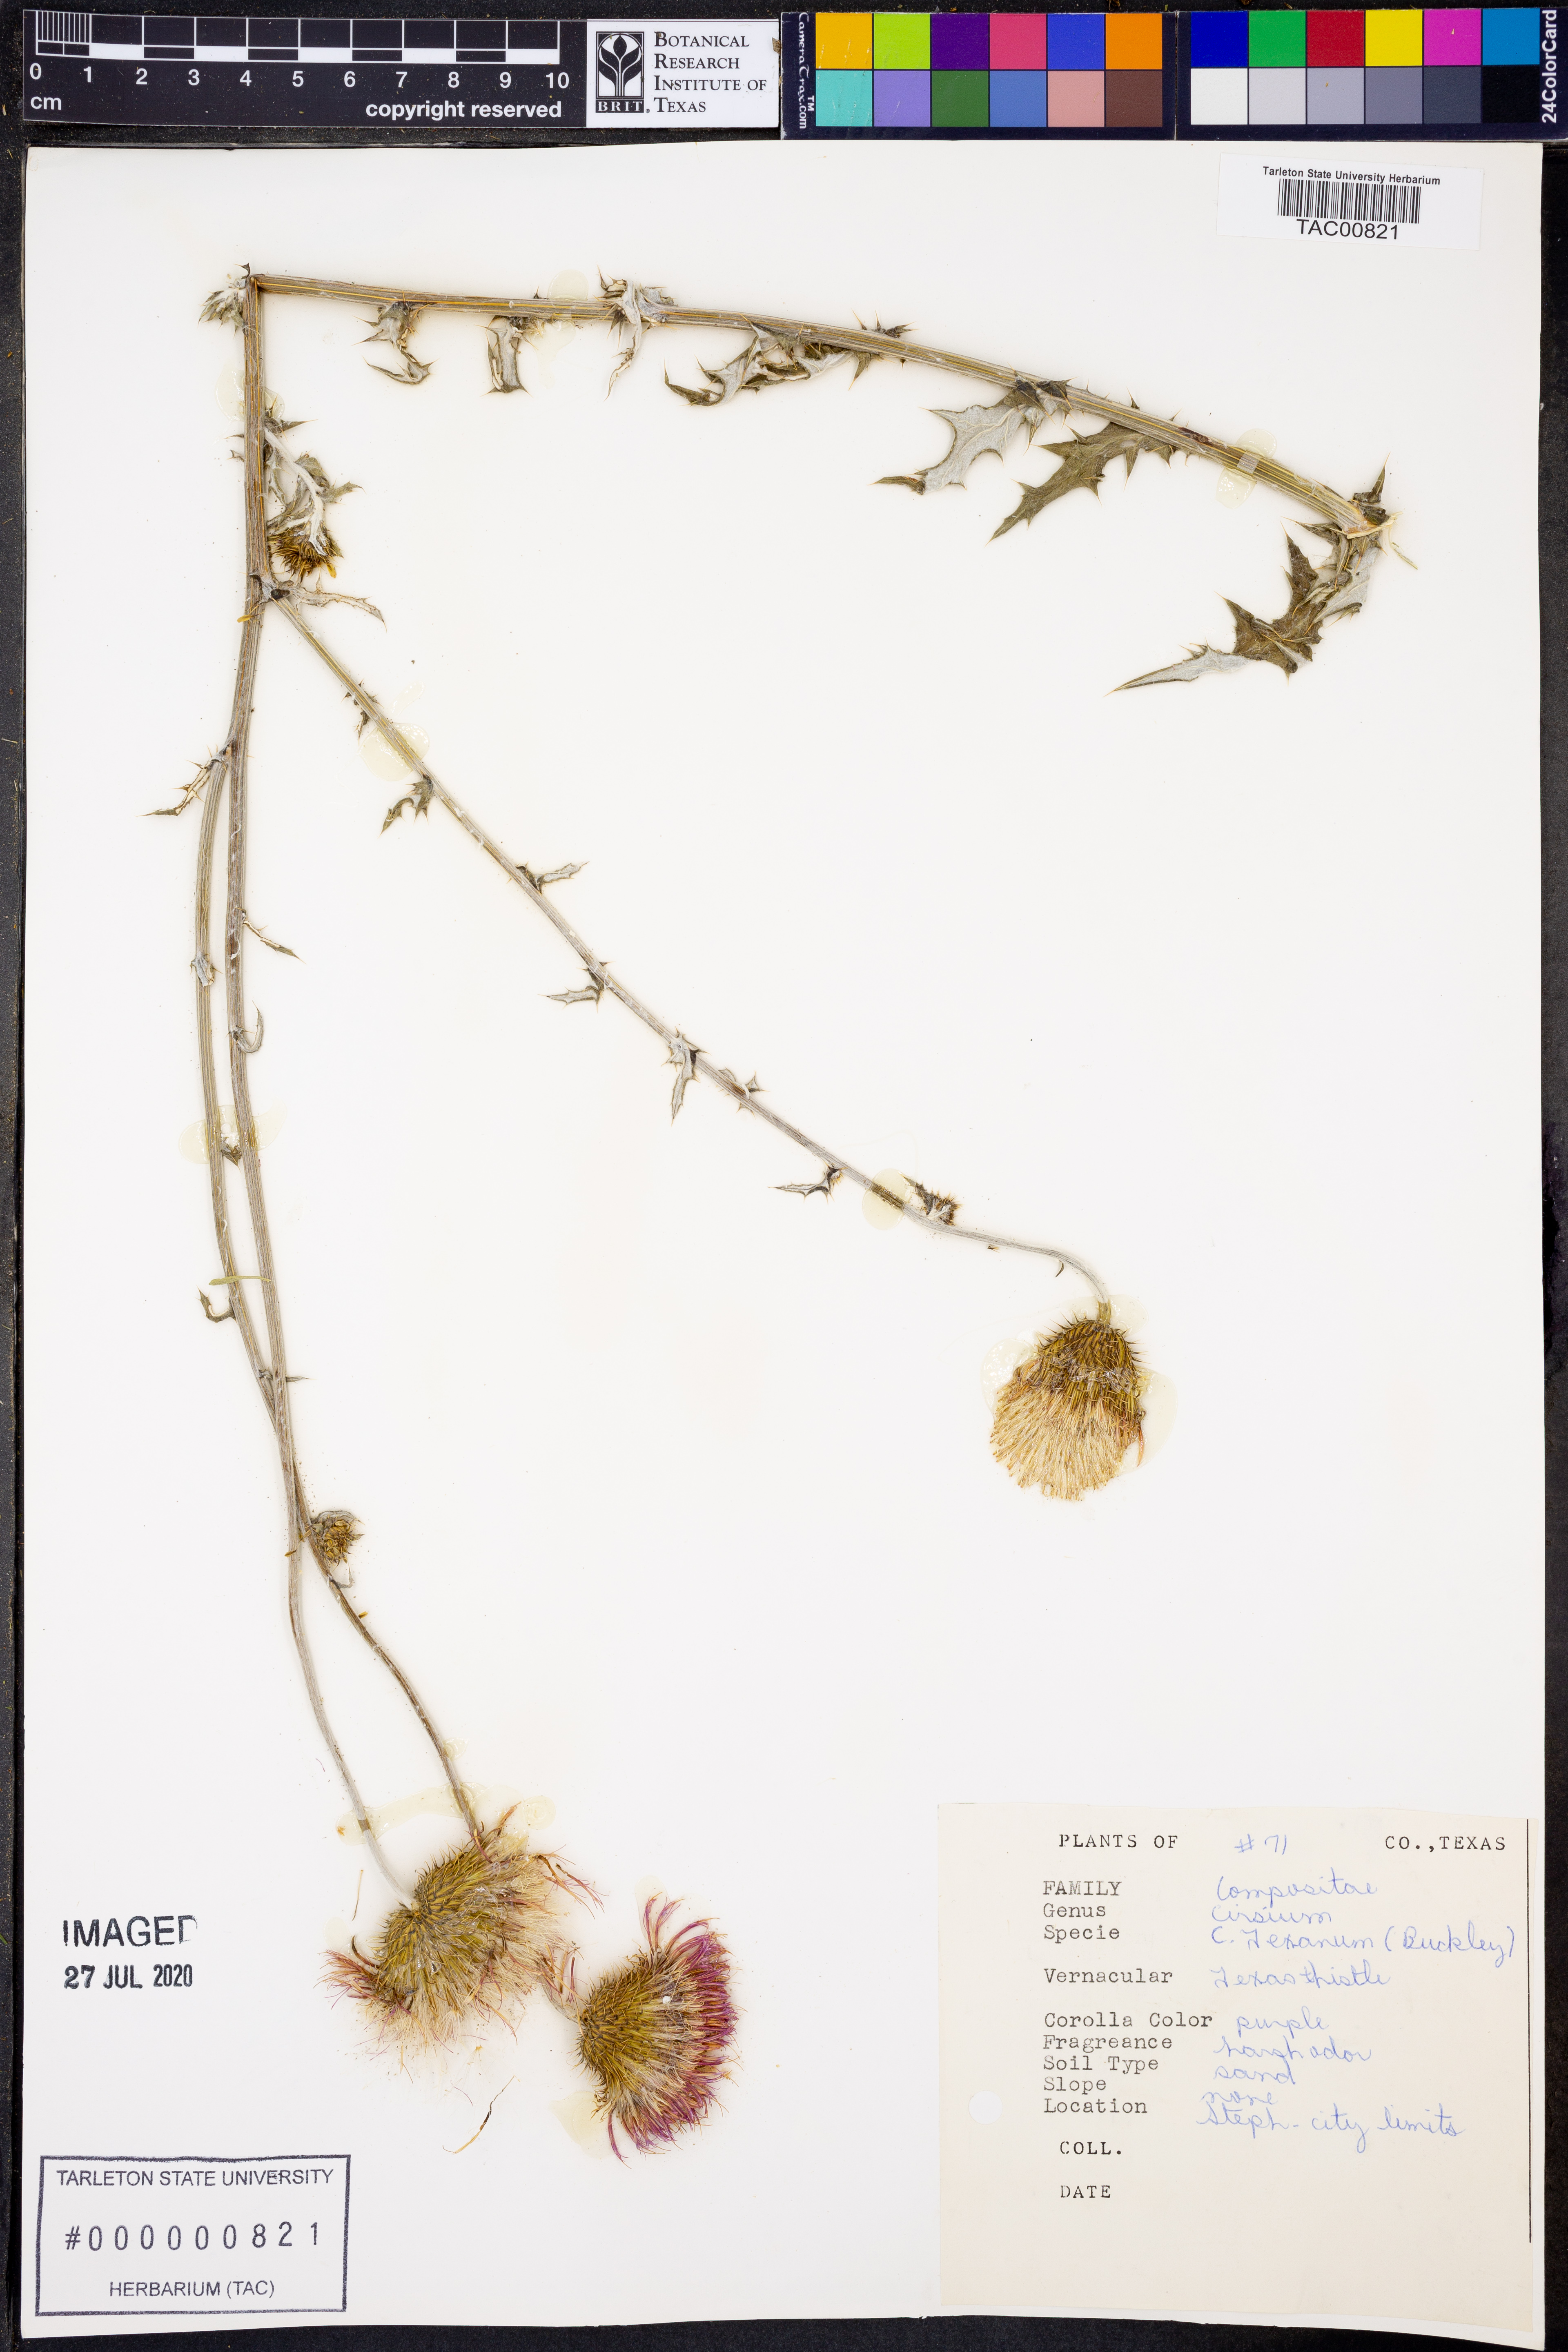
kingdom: Plantae
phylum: Tracheophyta
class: Magnoliopsida
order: Asterales
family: Asteraceae
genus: Cirsium
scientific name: Cirsium texanum
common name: Texas purple thistle
